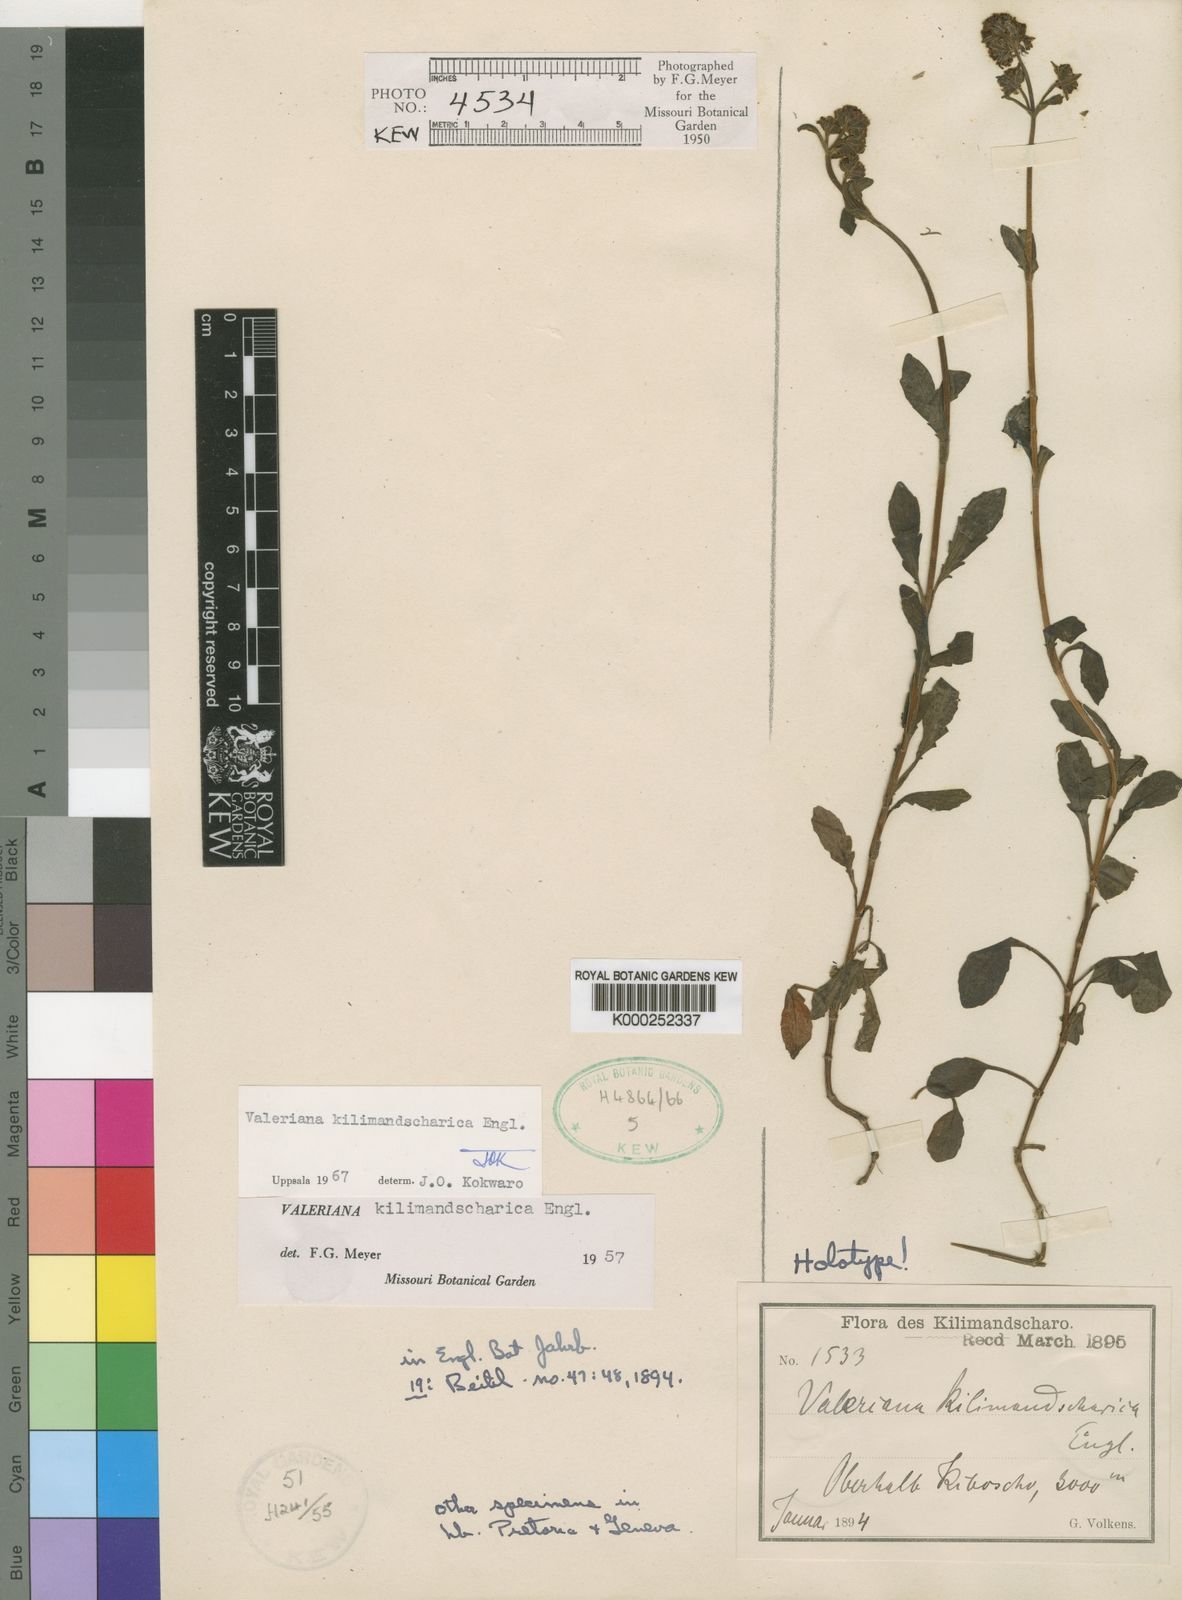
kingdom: Plantae
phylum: Tracheophyta
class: Magnoliopsida
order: Dipsacales
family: Caprifoliaceae
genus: Valeriana
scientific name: Valeriana kilimandscharica
